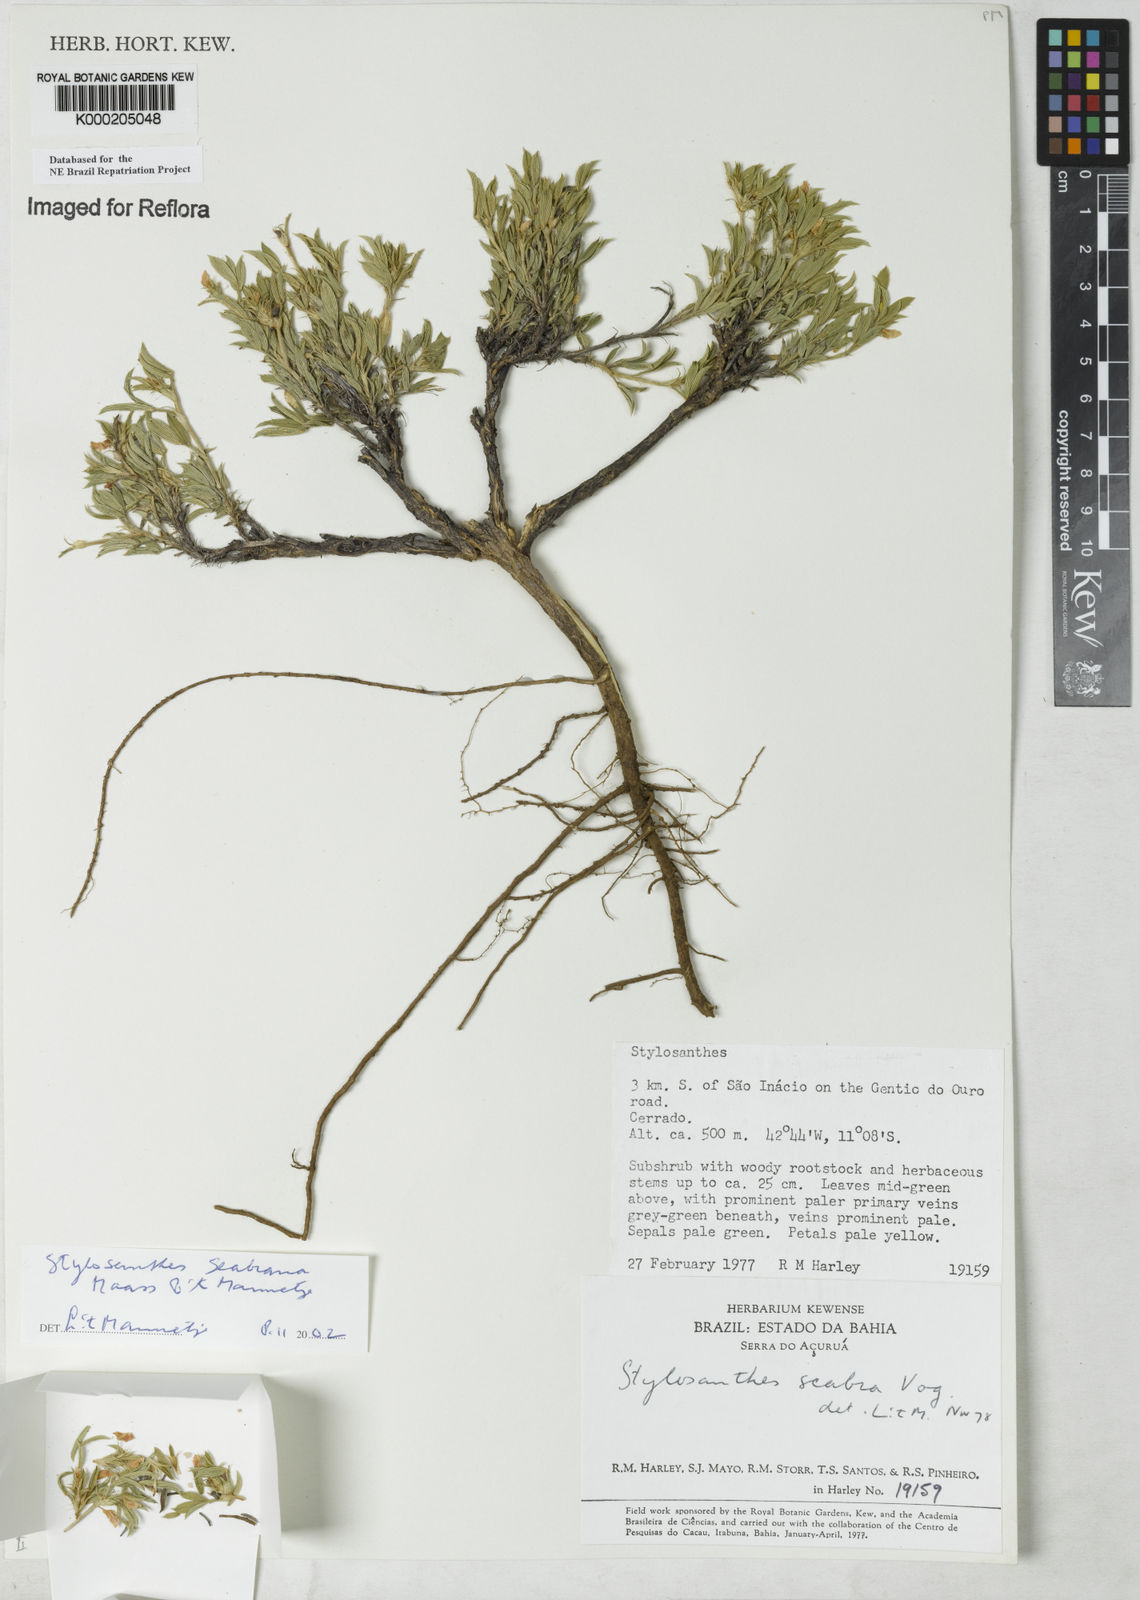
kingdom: Plantae
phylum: Tracheophyta
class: Magnoliopsida
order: Fabales
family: Fabaceae
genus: Stylosanthes
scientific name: Stylosanthes scabra
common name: Pencilflower
